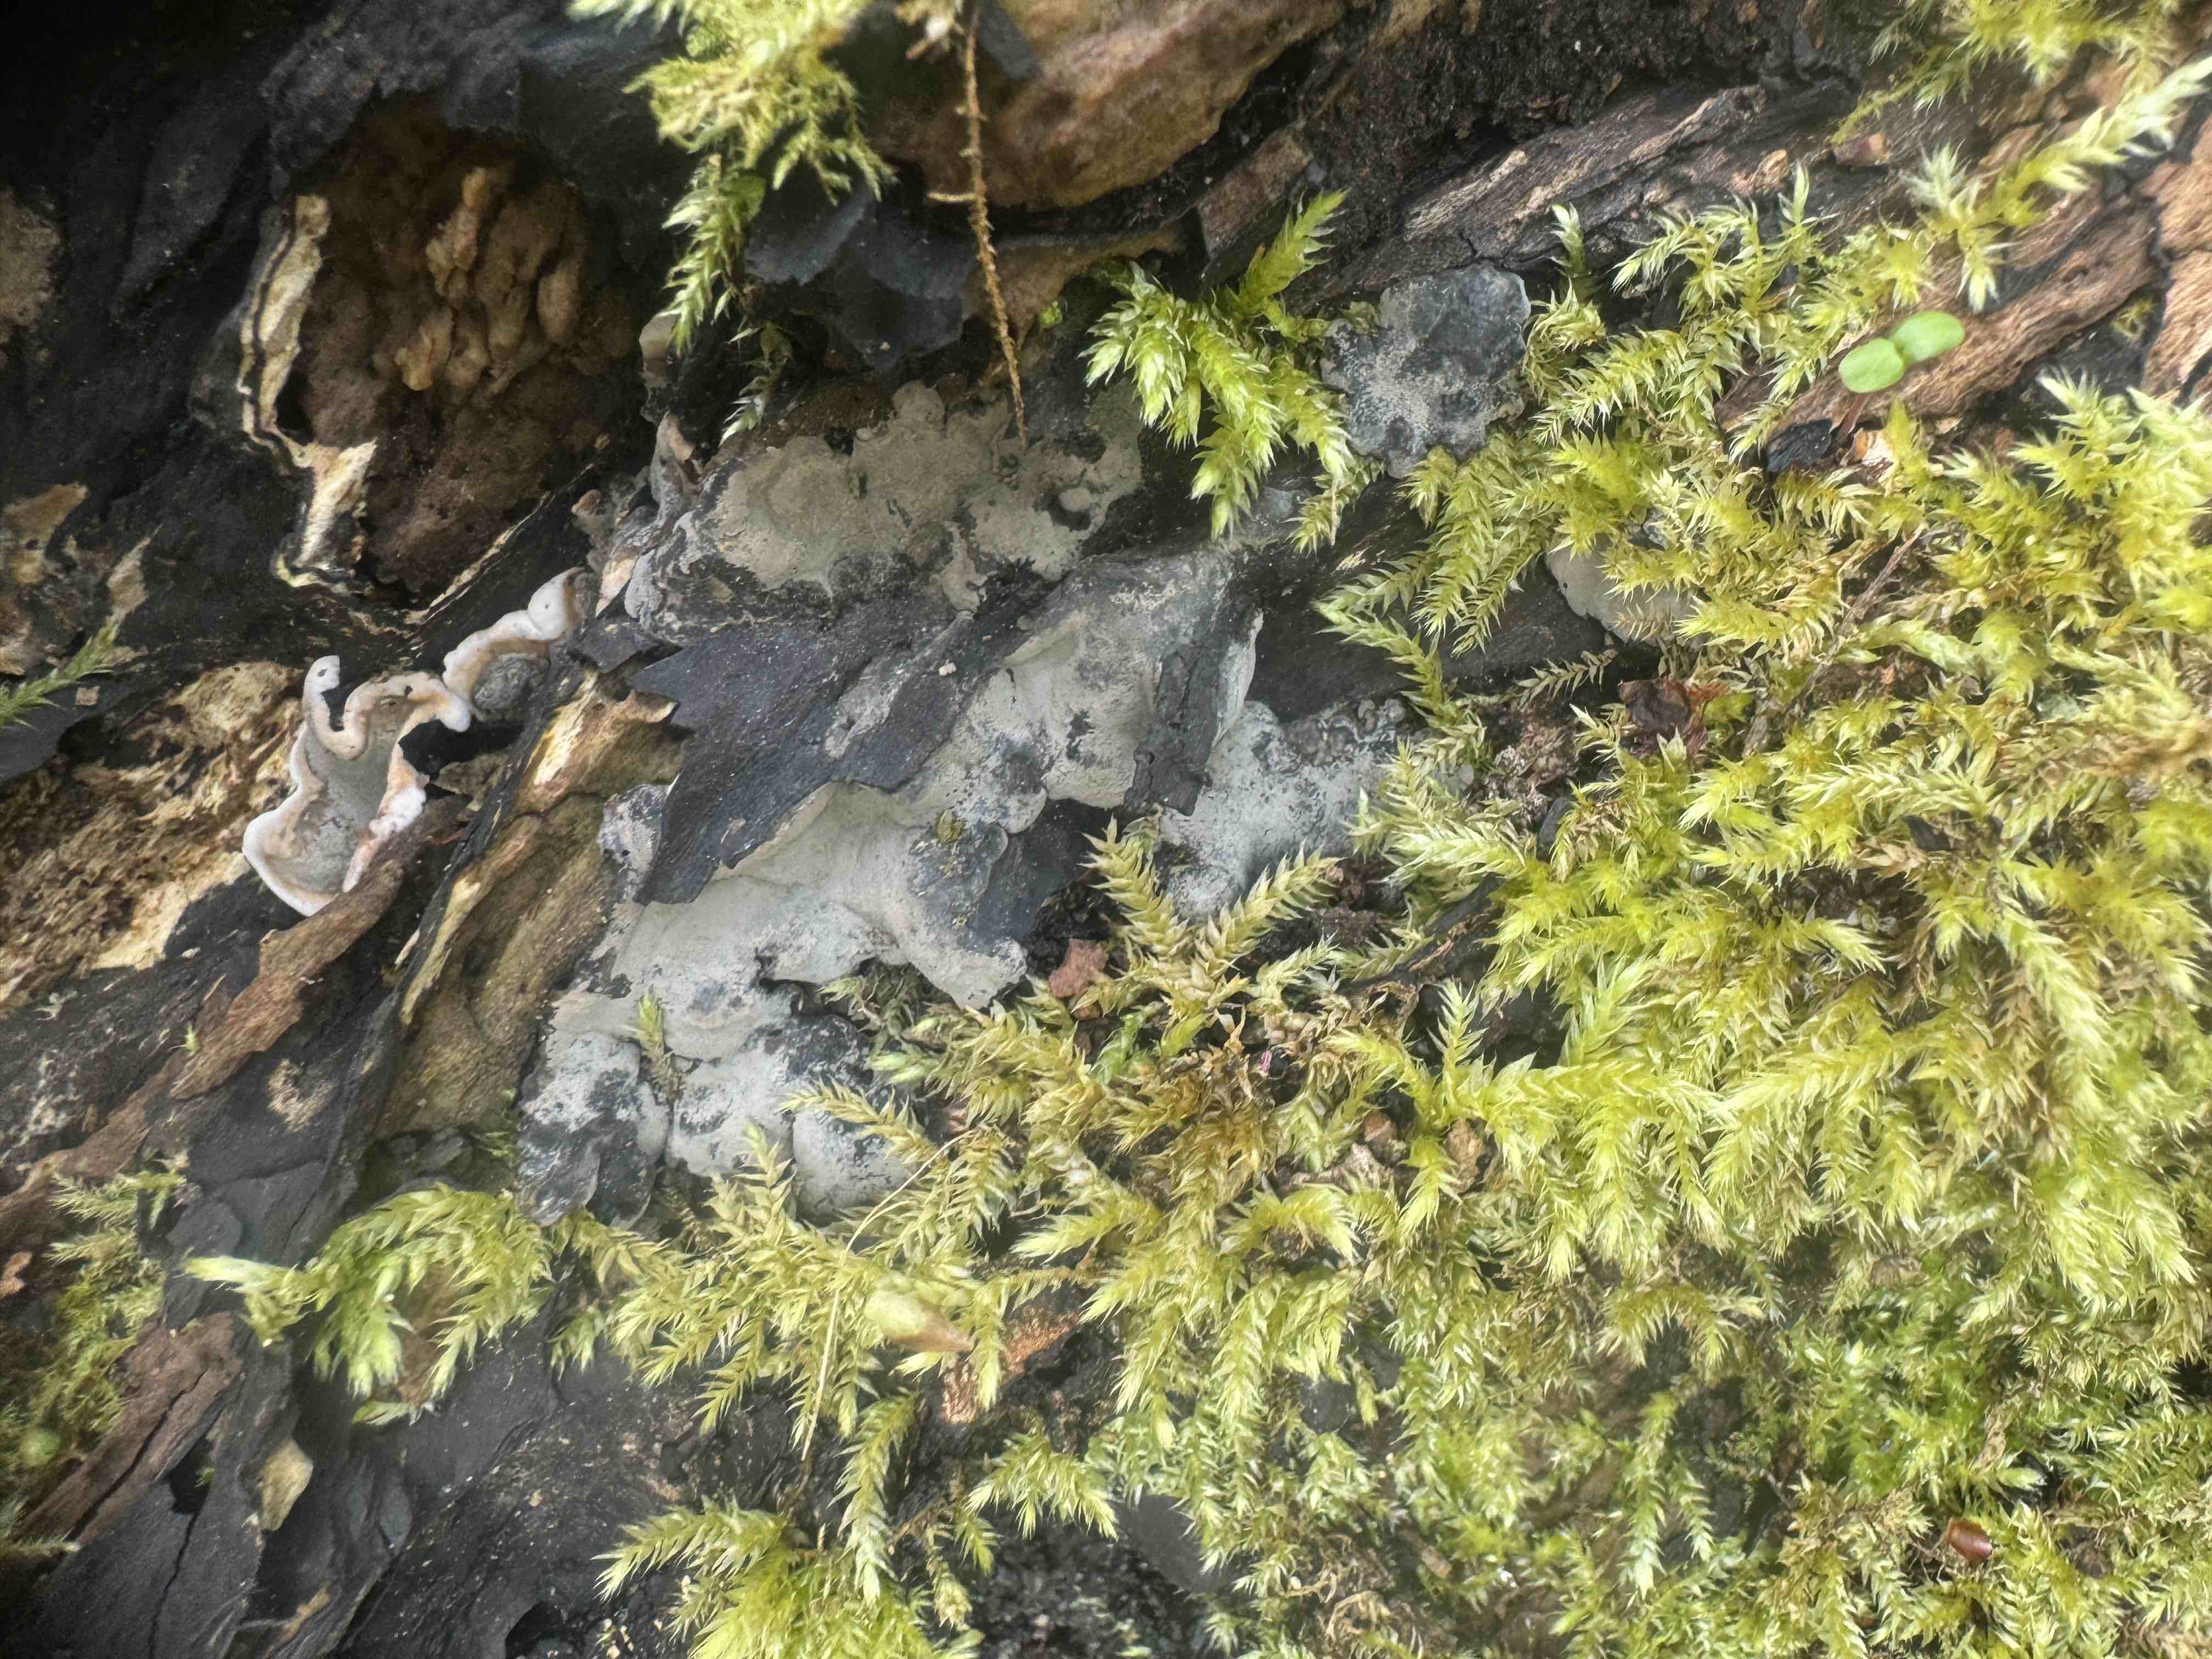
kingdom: Fungi
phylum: Ascomycota
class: Sordariomycetes
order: Xylariales
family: Xylariaceae
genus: Kretzschmaria
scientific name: Kretzschmaria deusta
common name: stor kulsvamp
